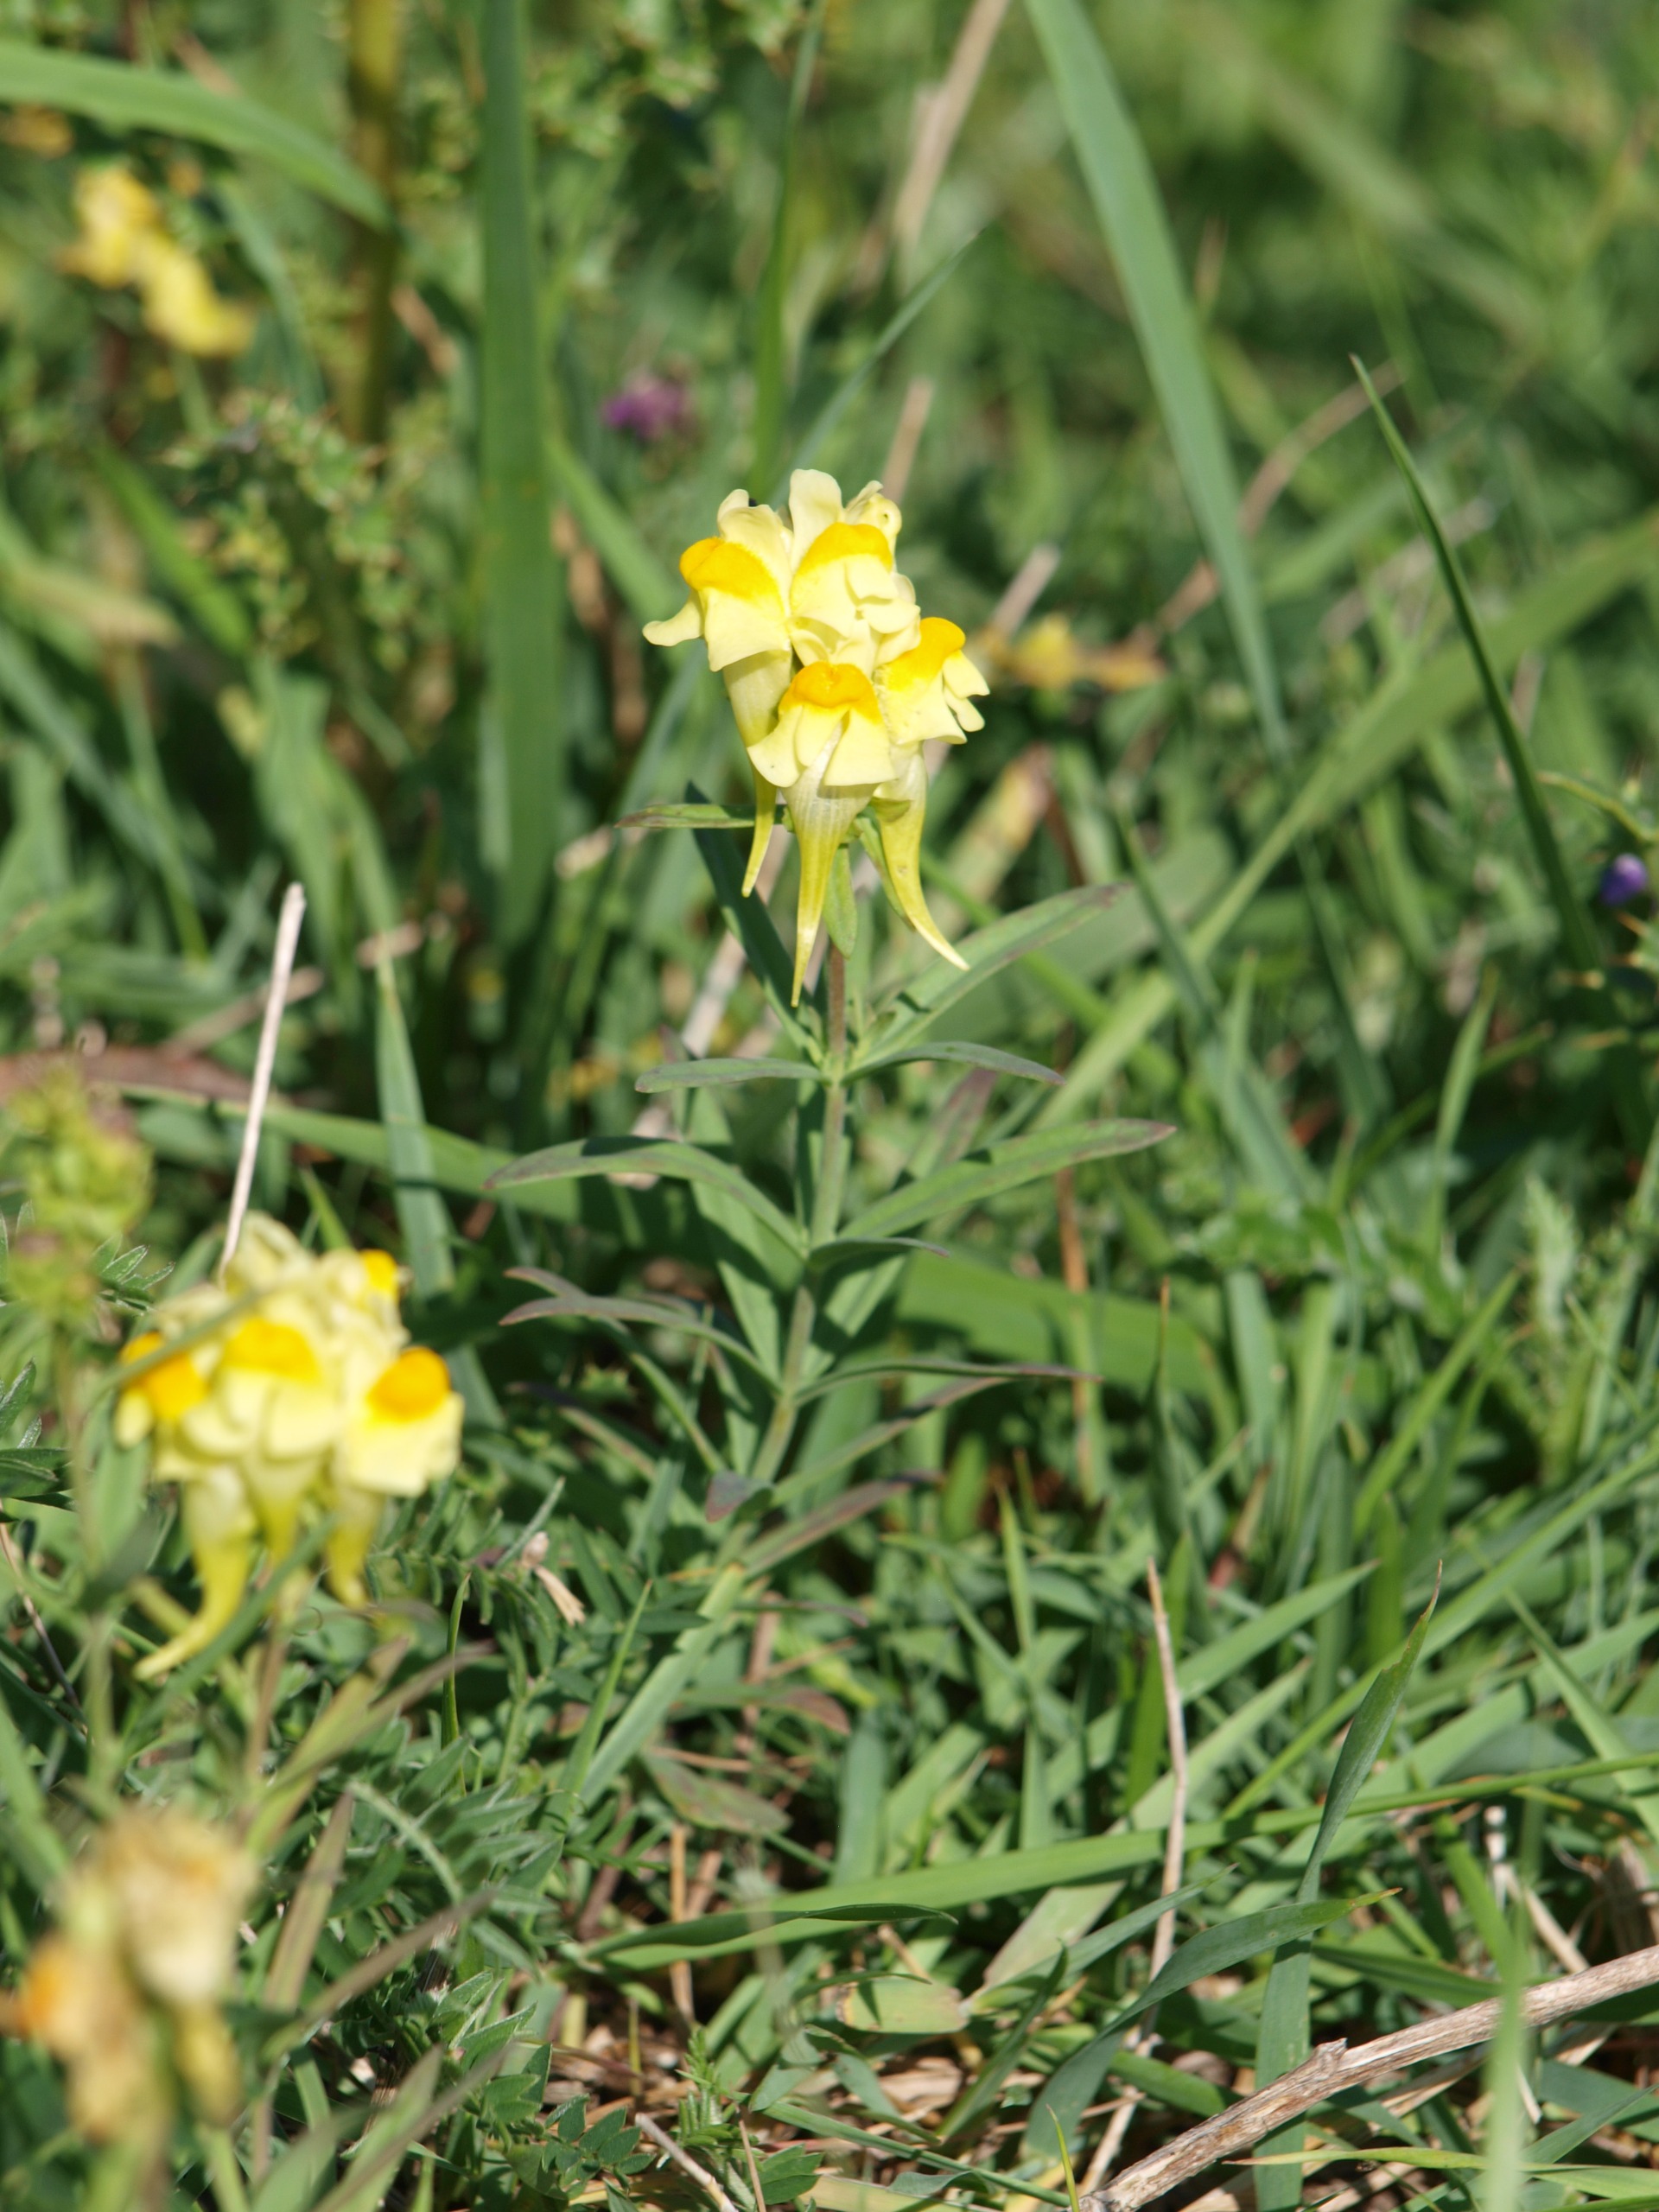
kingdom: Plantae
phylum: Tracheophyta
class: Magnoliopsida
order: Lamiales
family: Plantaginaceae
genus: Linaria
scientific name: Linaria vulgaris
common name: Almindelig torskemund
